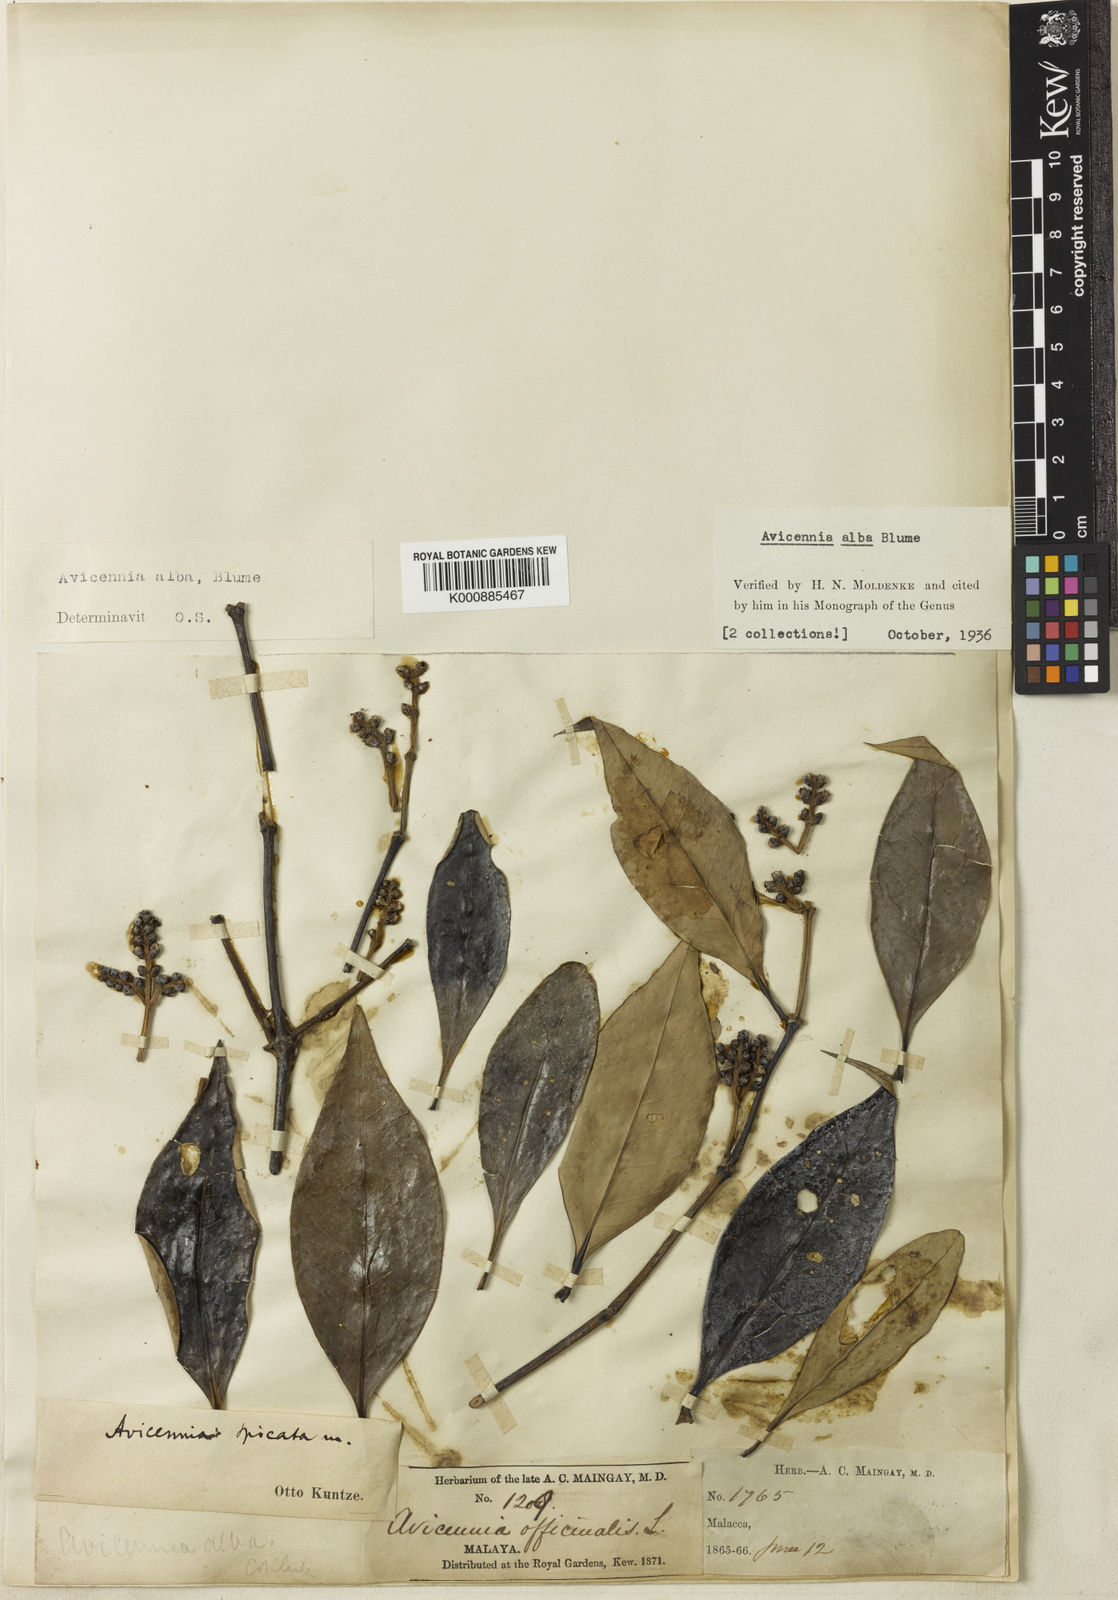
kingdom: Plantae
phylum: Tracheophyta
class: Magnoliopsida
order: Lamiales
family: Acanthaceae
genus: Avicennia
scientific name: Avicennia alba
